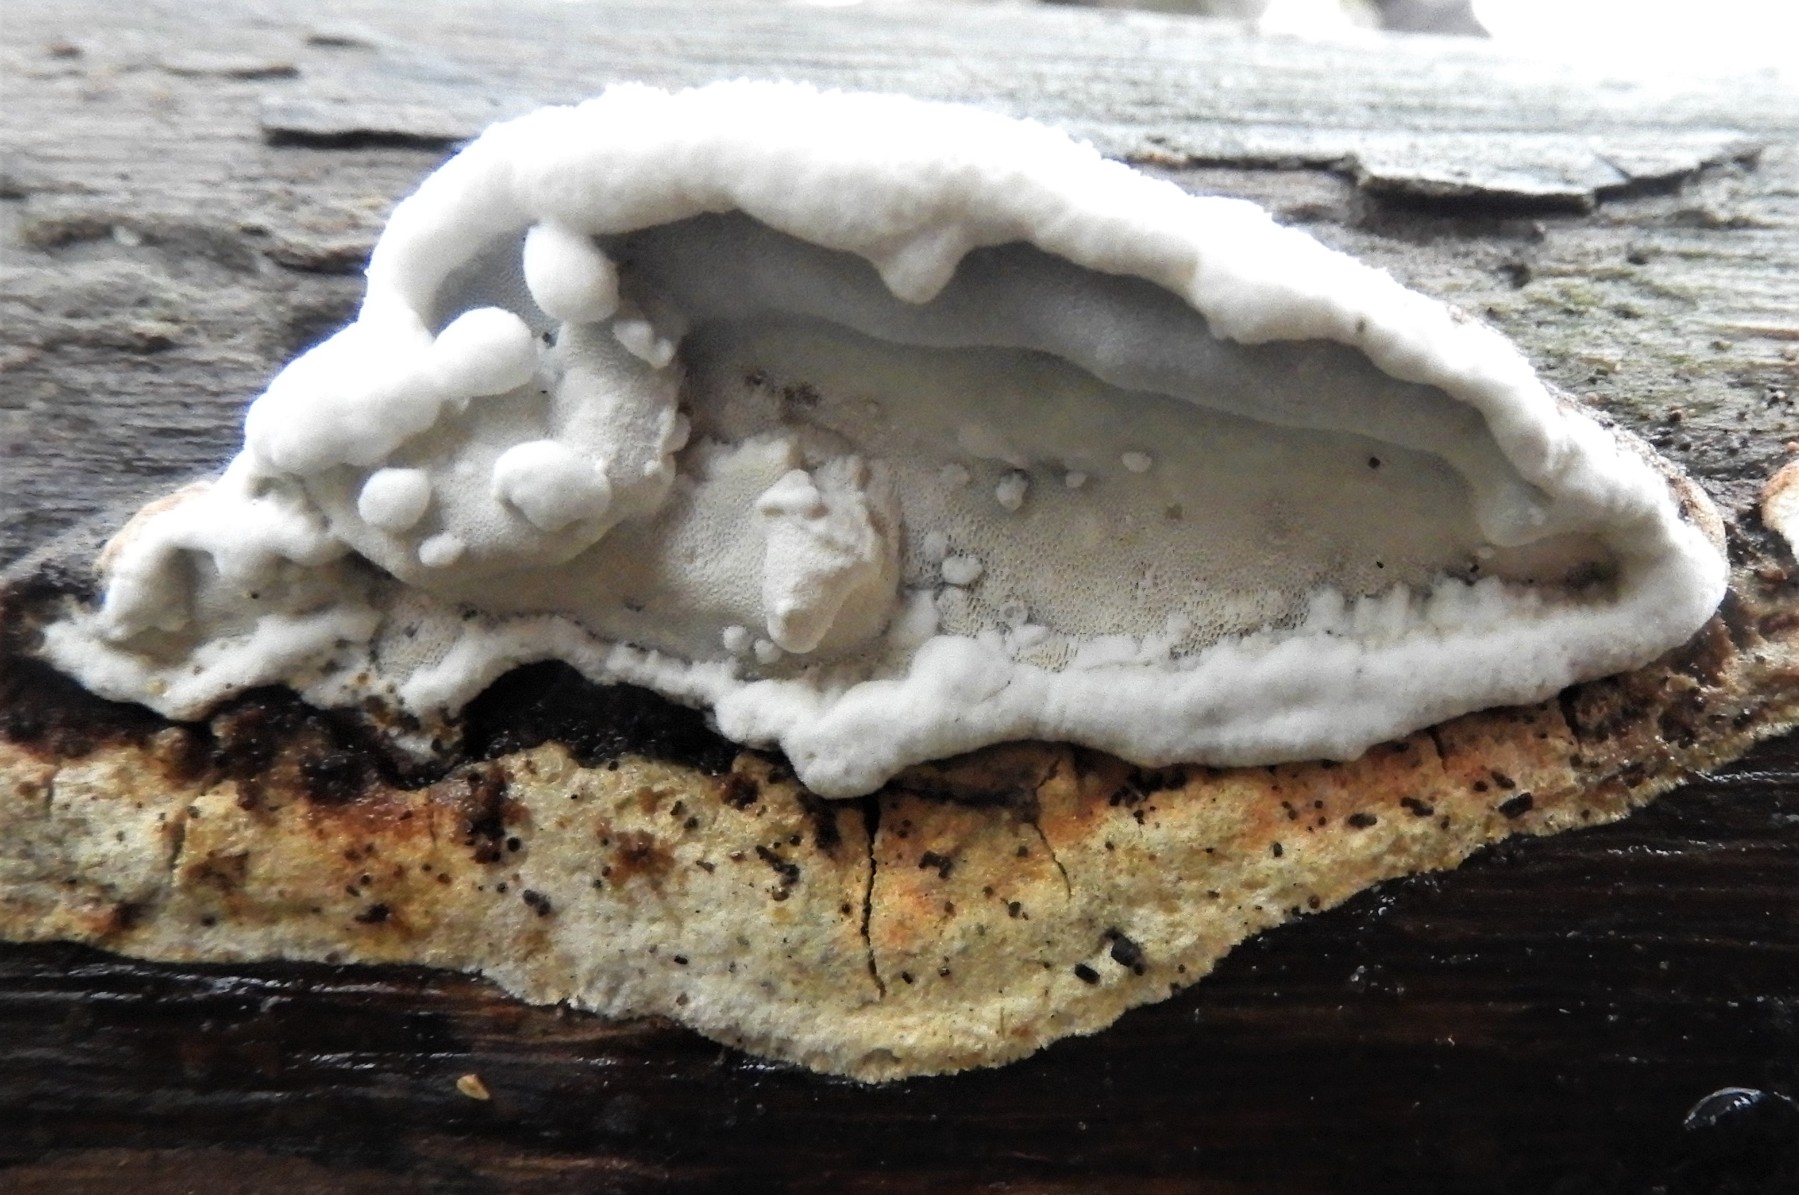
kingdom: Fungi
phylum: Basidiomycota
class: Agaricomycetes
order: Polyporales
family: Incrustoporiaceae
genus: Skeletocutis
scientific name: Skeletocutis nemoralis
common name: stor krystalporesvamp
